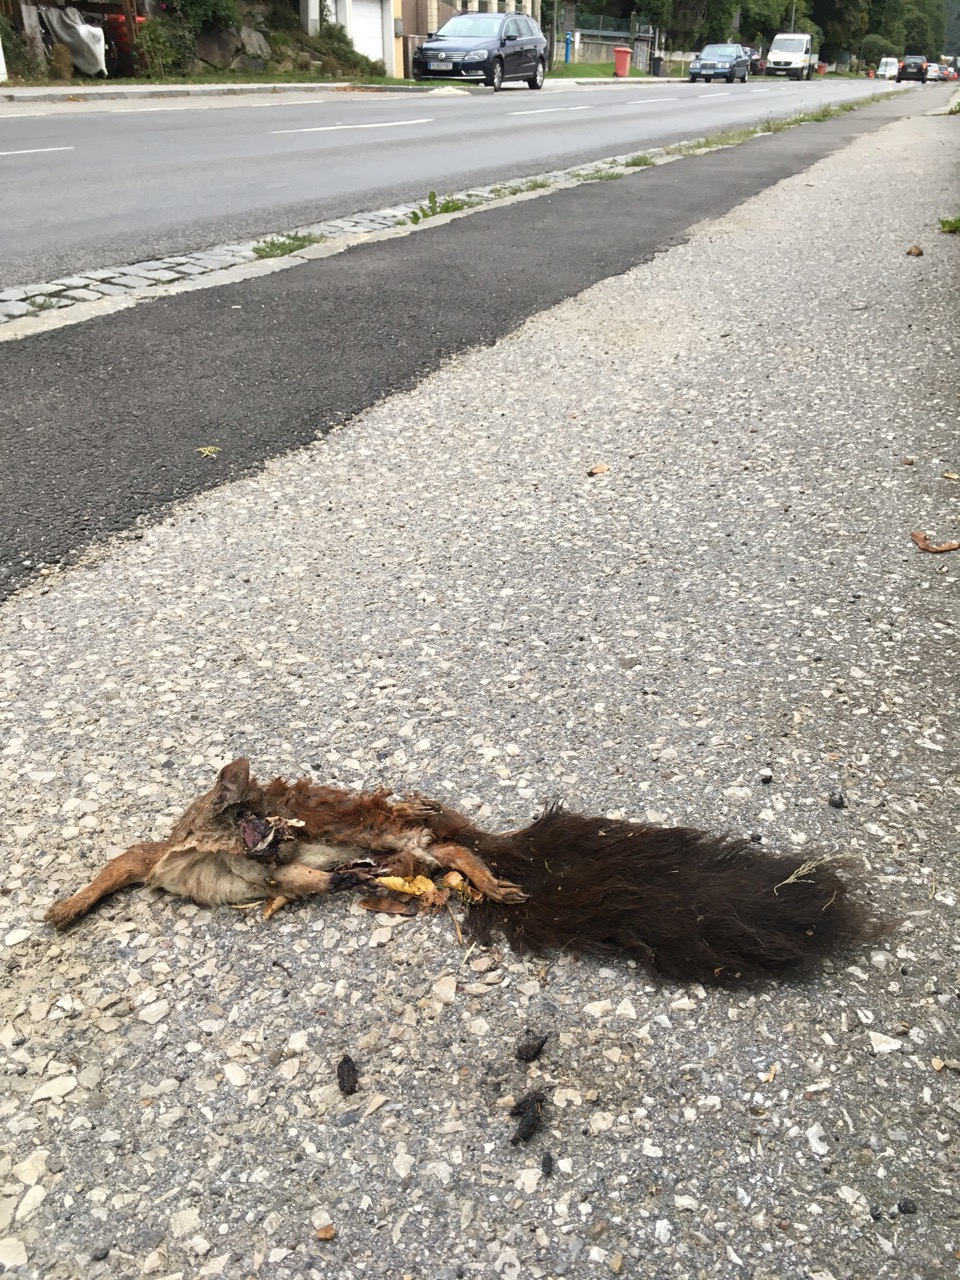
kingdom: Animalia
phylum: Chordata
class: Mammalia
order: Rodentia
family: Sciuridae
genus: Sciurus
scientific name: Sciurus vulgaris
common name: Eurasian red squirrel
